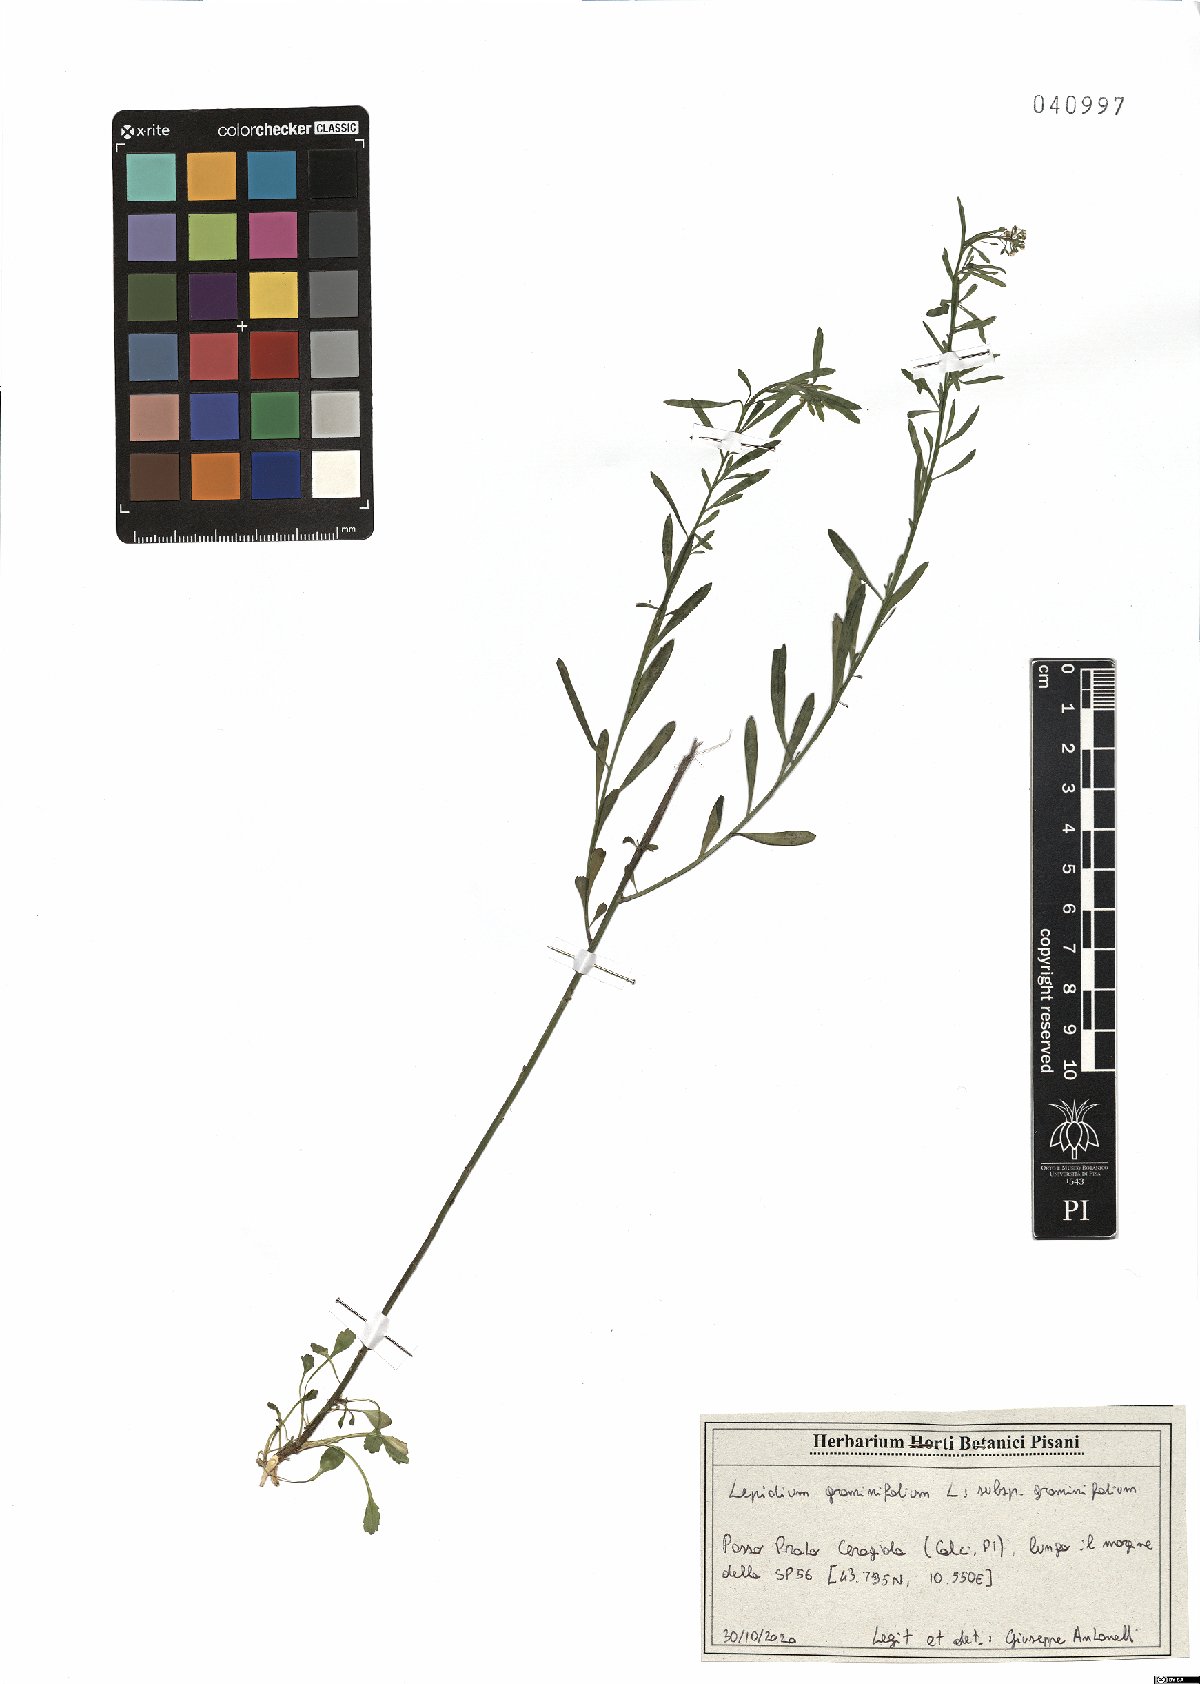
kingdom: Plantae
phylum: Tracheophyta
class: Magnoliopsida
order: Brassicales
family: Brassicaceae
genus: Lepidium
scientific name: Lepidium graminifolium
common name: Tall pepperwort
